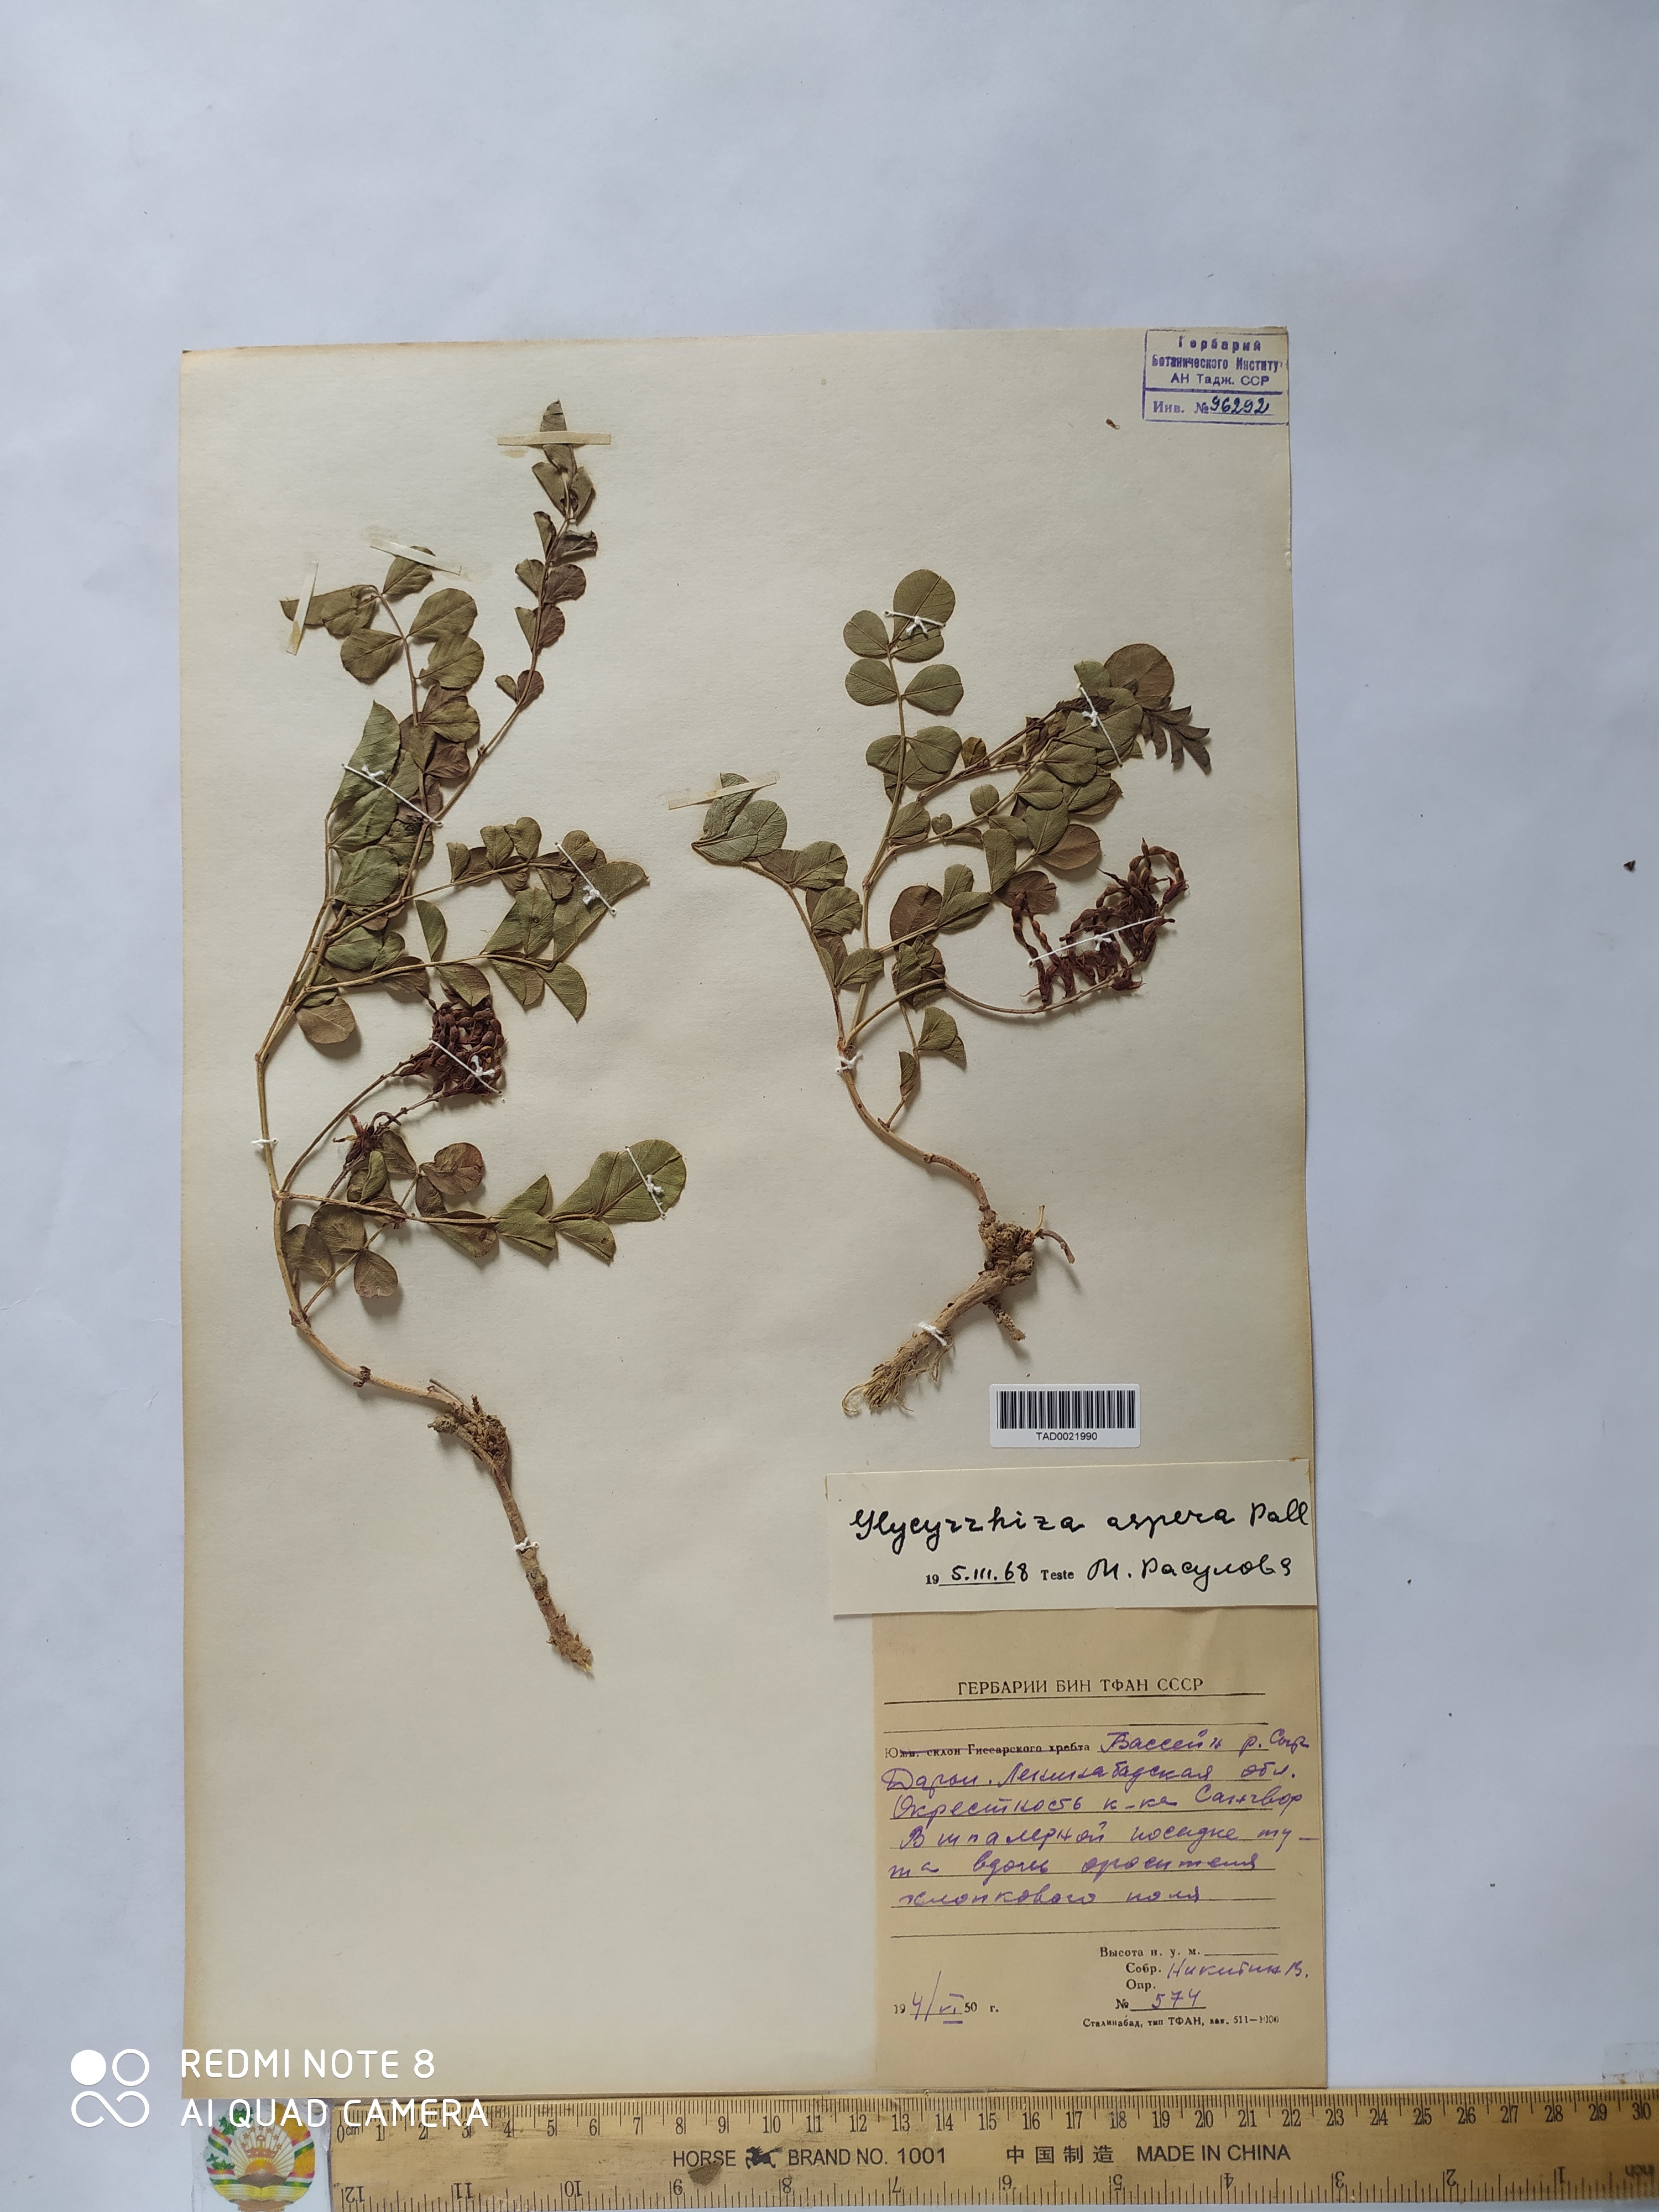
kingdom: Plantae
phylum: Tracheophyta
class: Magnoliopsida
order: Fabales
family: Fabaceae
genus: Glycyrrhiza
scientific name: Glycyrrhiza glabra
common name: Liquorice
